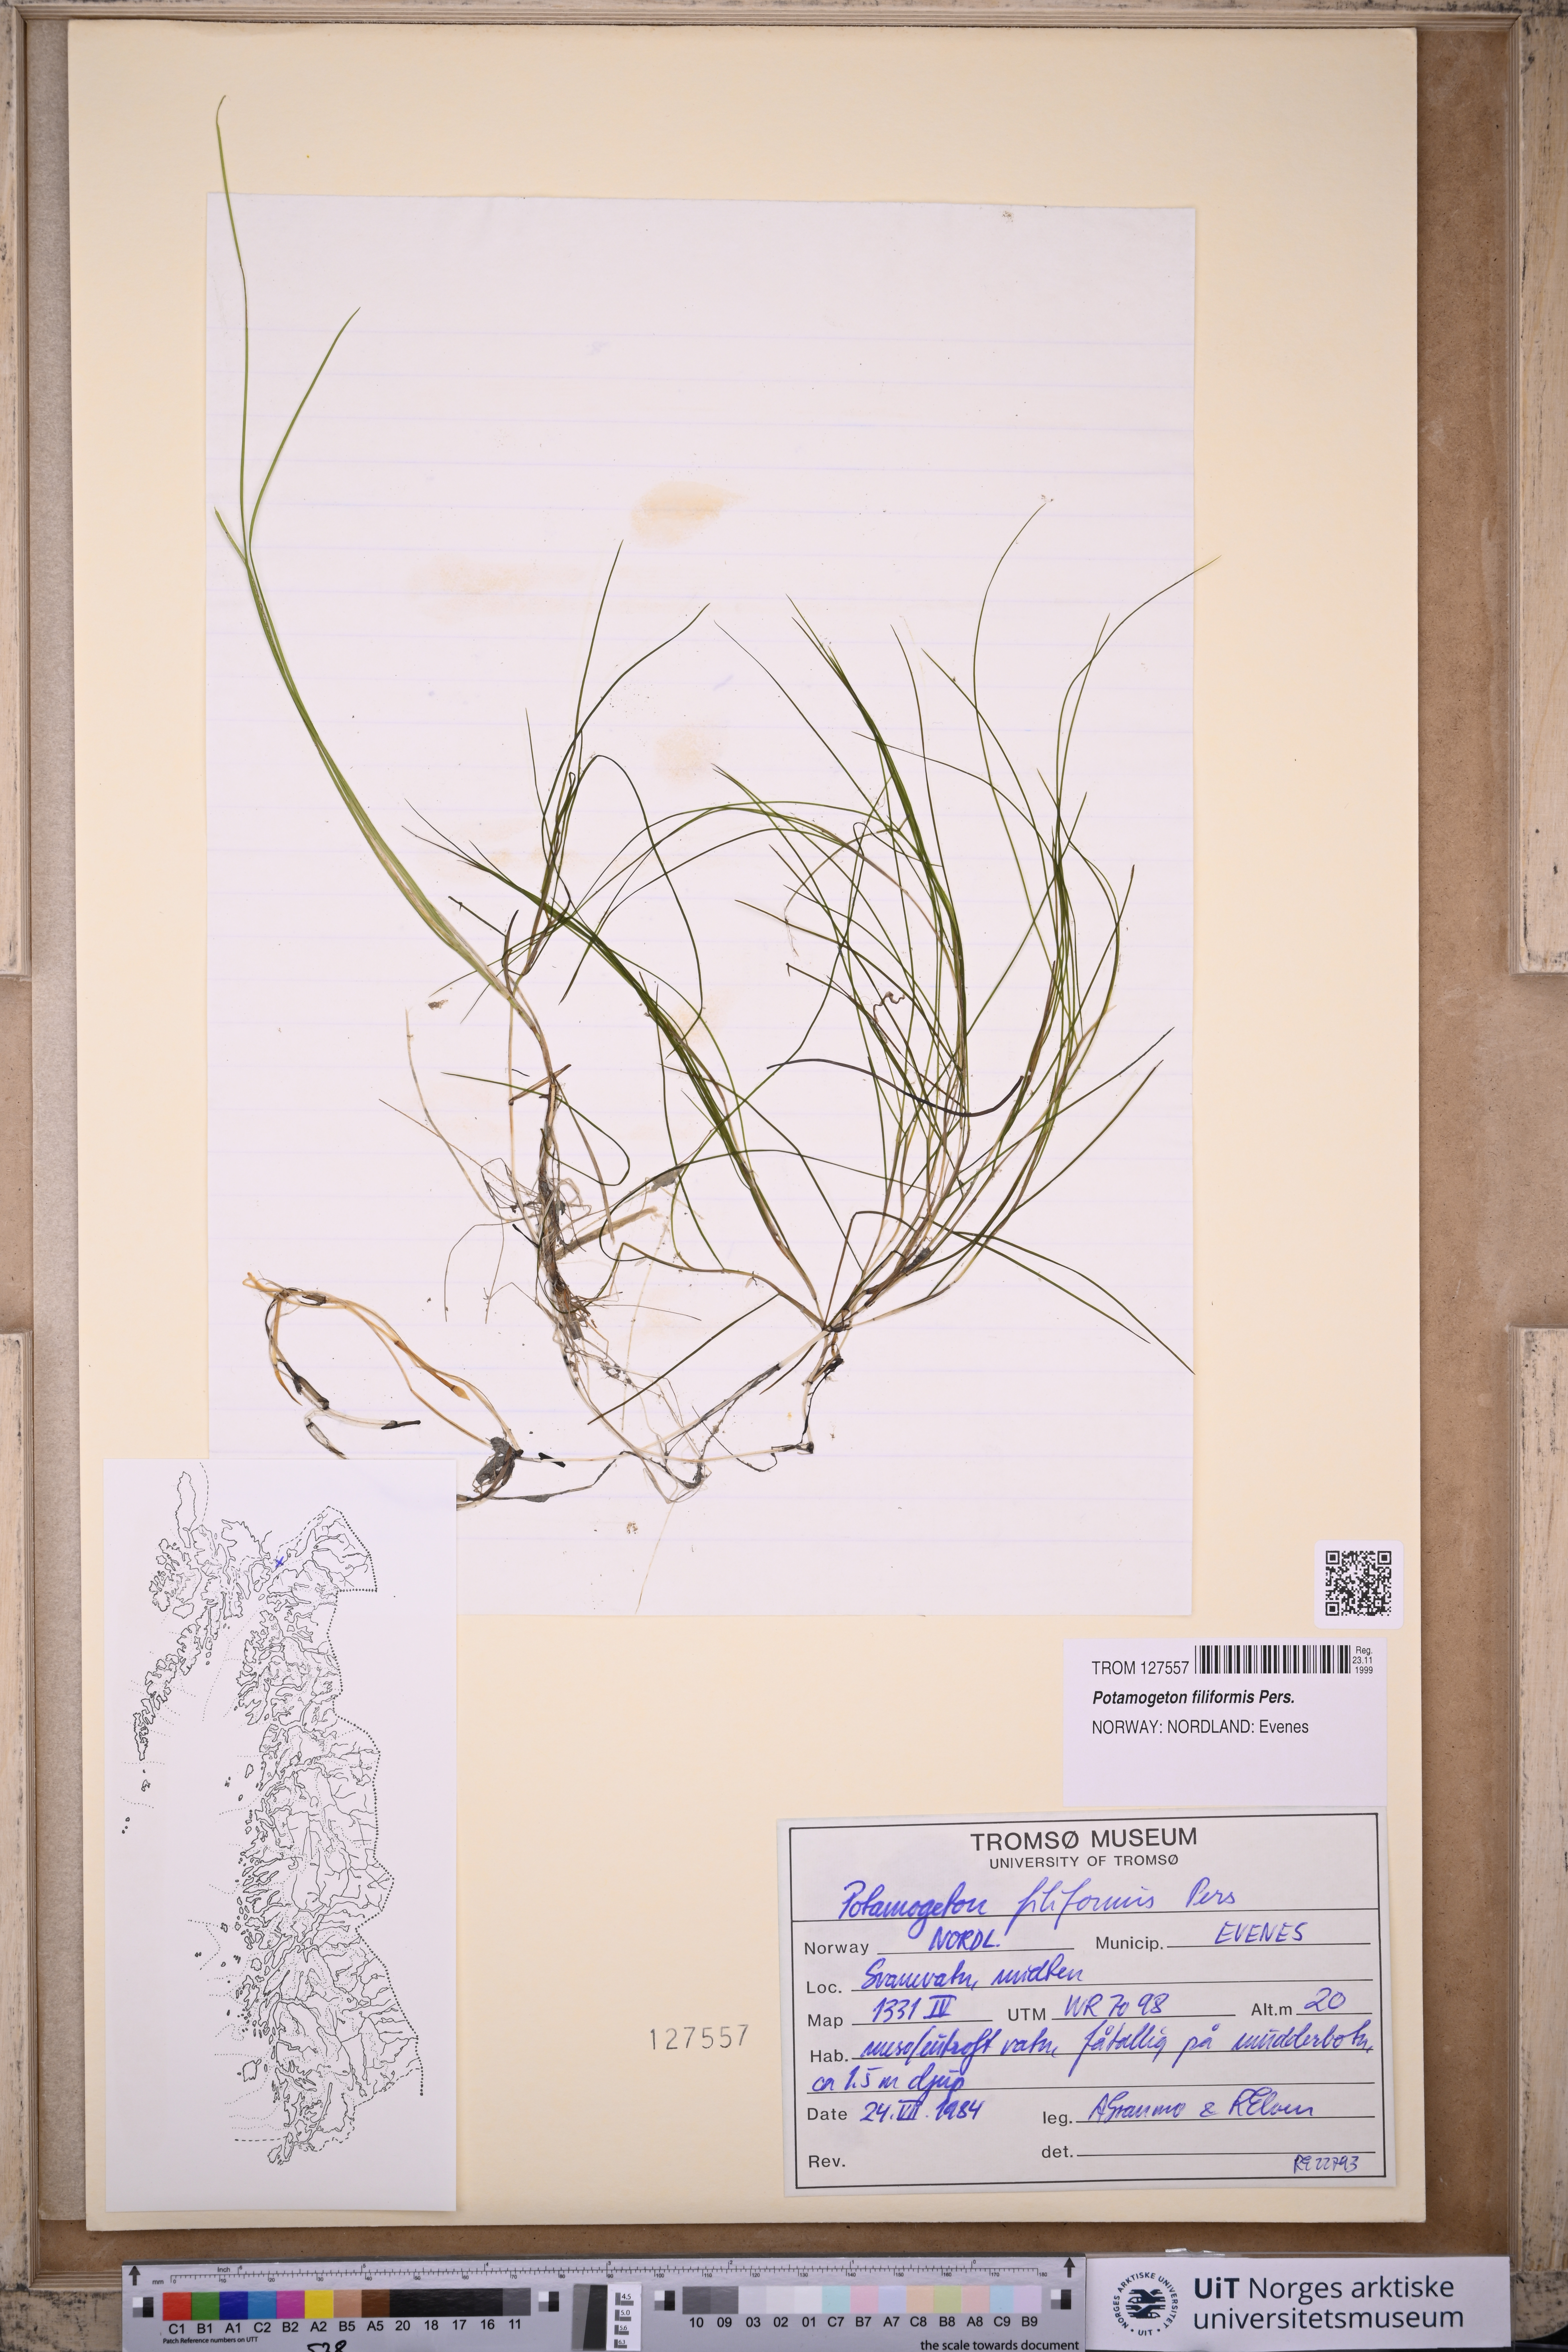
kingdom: Plantae
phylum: Tracheophyta
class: Liliopsida
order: Alismatales
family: Potamogetonaceae
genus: Stuckenia
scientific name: Stuckenia filiformis
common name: Alpine thread-leaved pondweed
